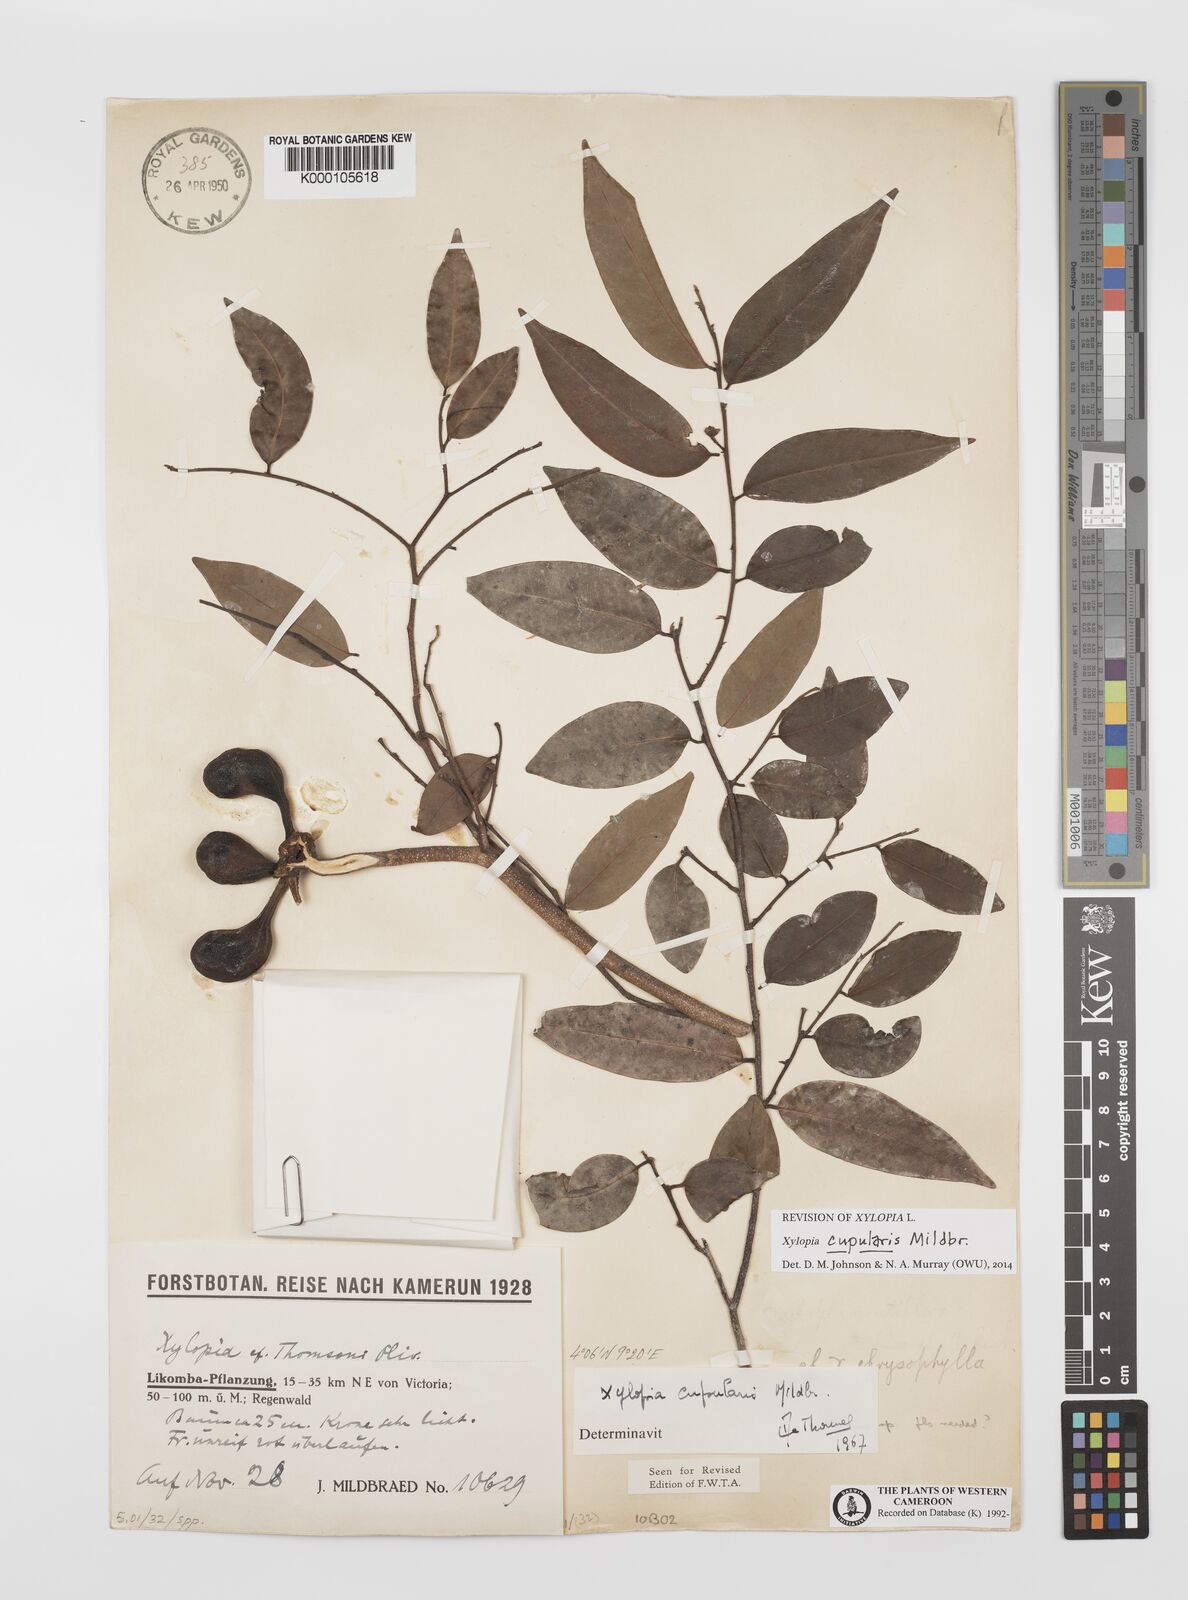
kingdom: Plantae
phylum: Tracheophyta
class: Magnoliopsida
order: Magnoliales
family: Annonaceae
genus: Xylopia
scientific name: Xylopia
